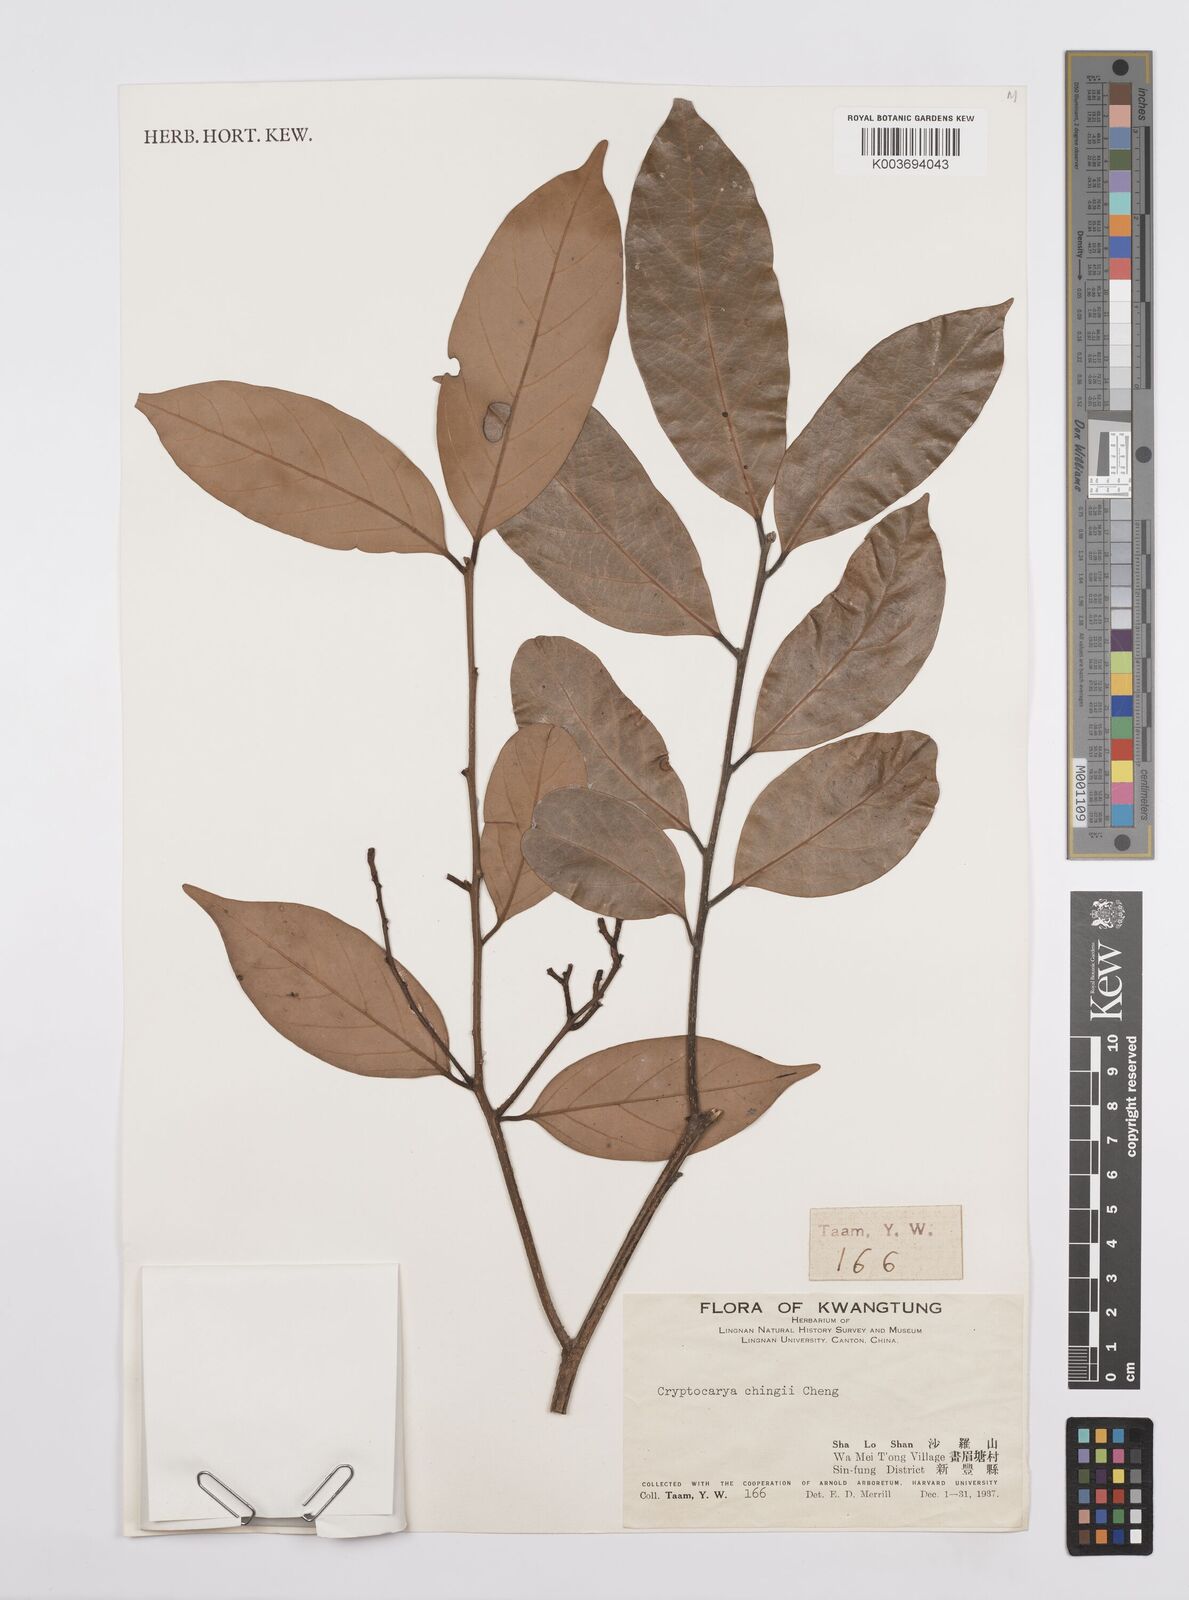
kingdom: Plantae
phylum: Tracheophyta
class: Magnoliopsida
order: Laurales
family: Lauraceae
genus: Cryptocarya
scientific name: Cryptocarya chingii
